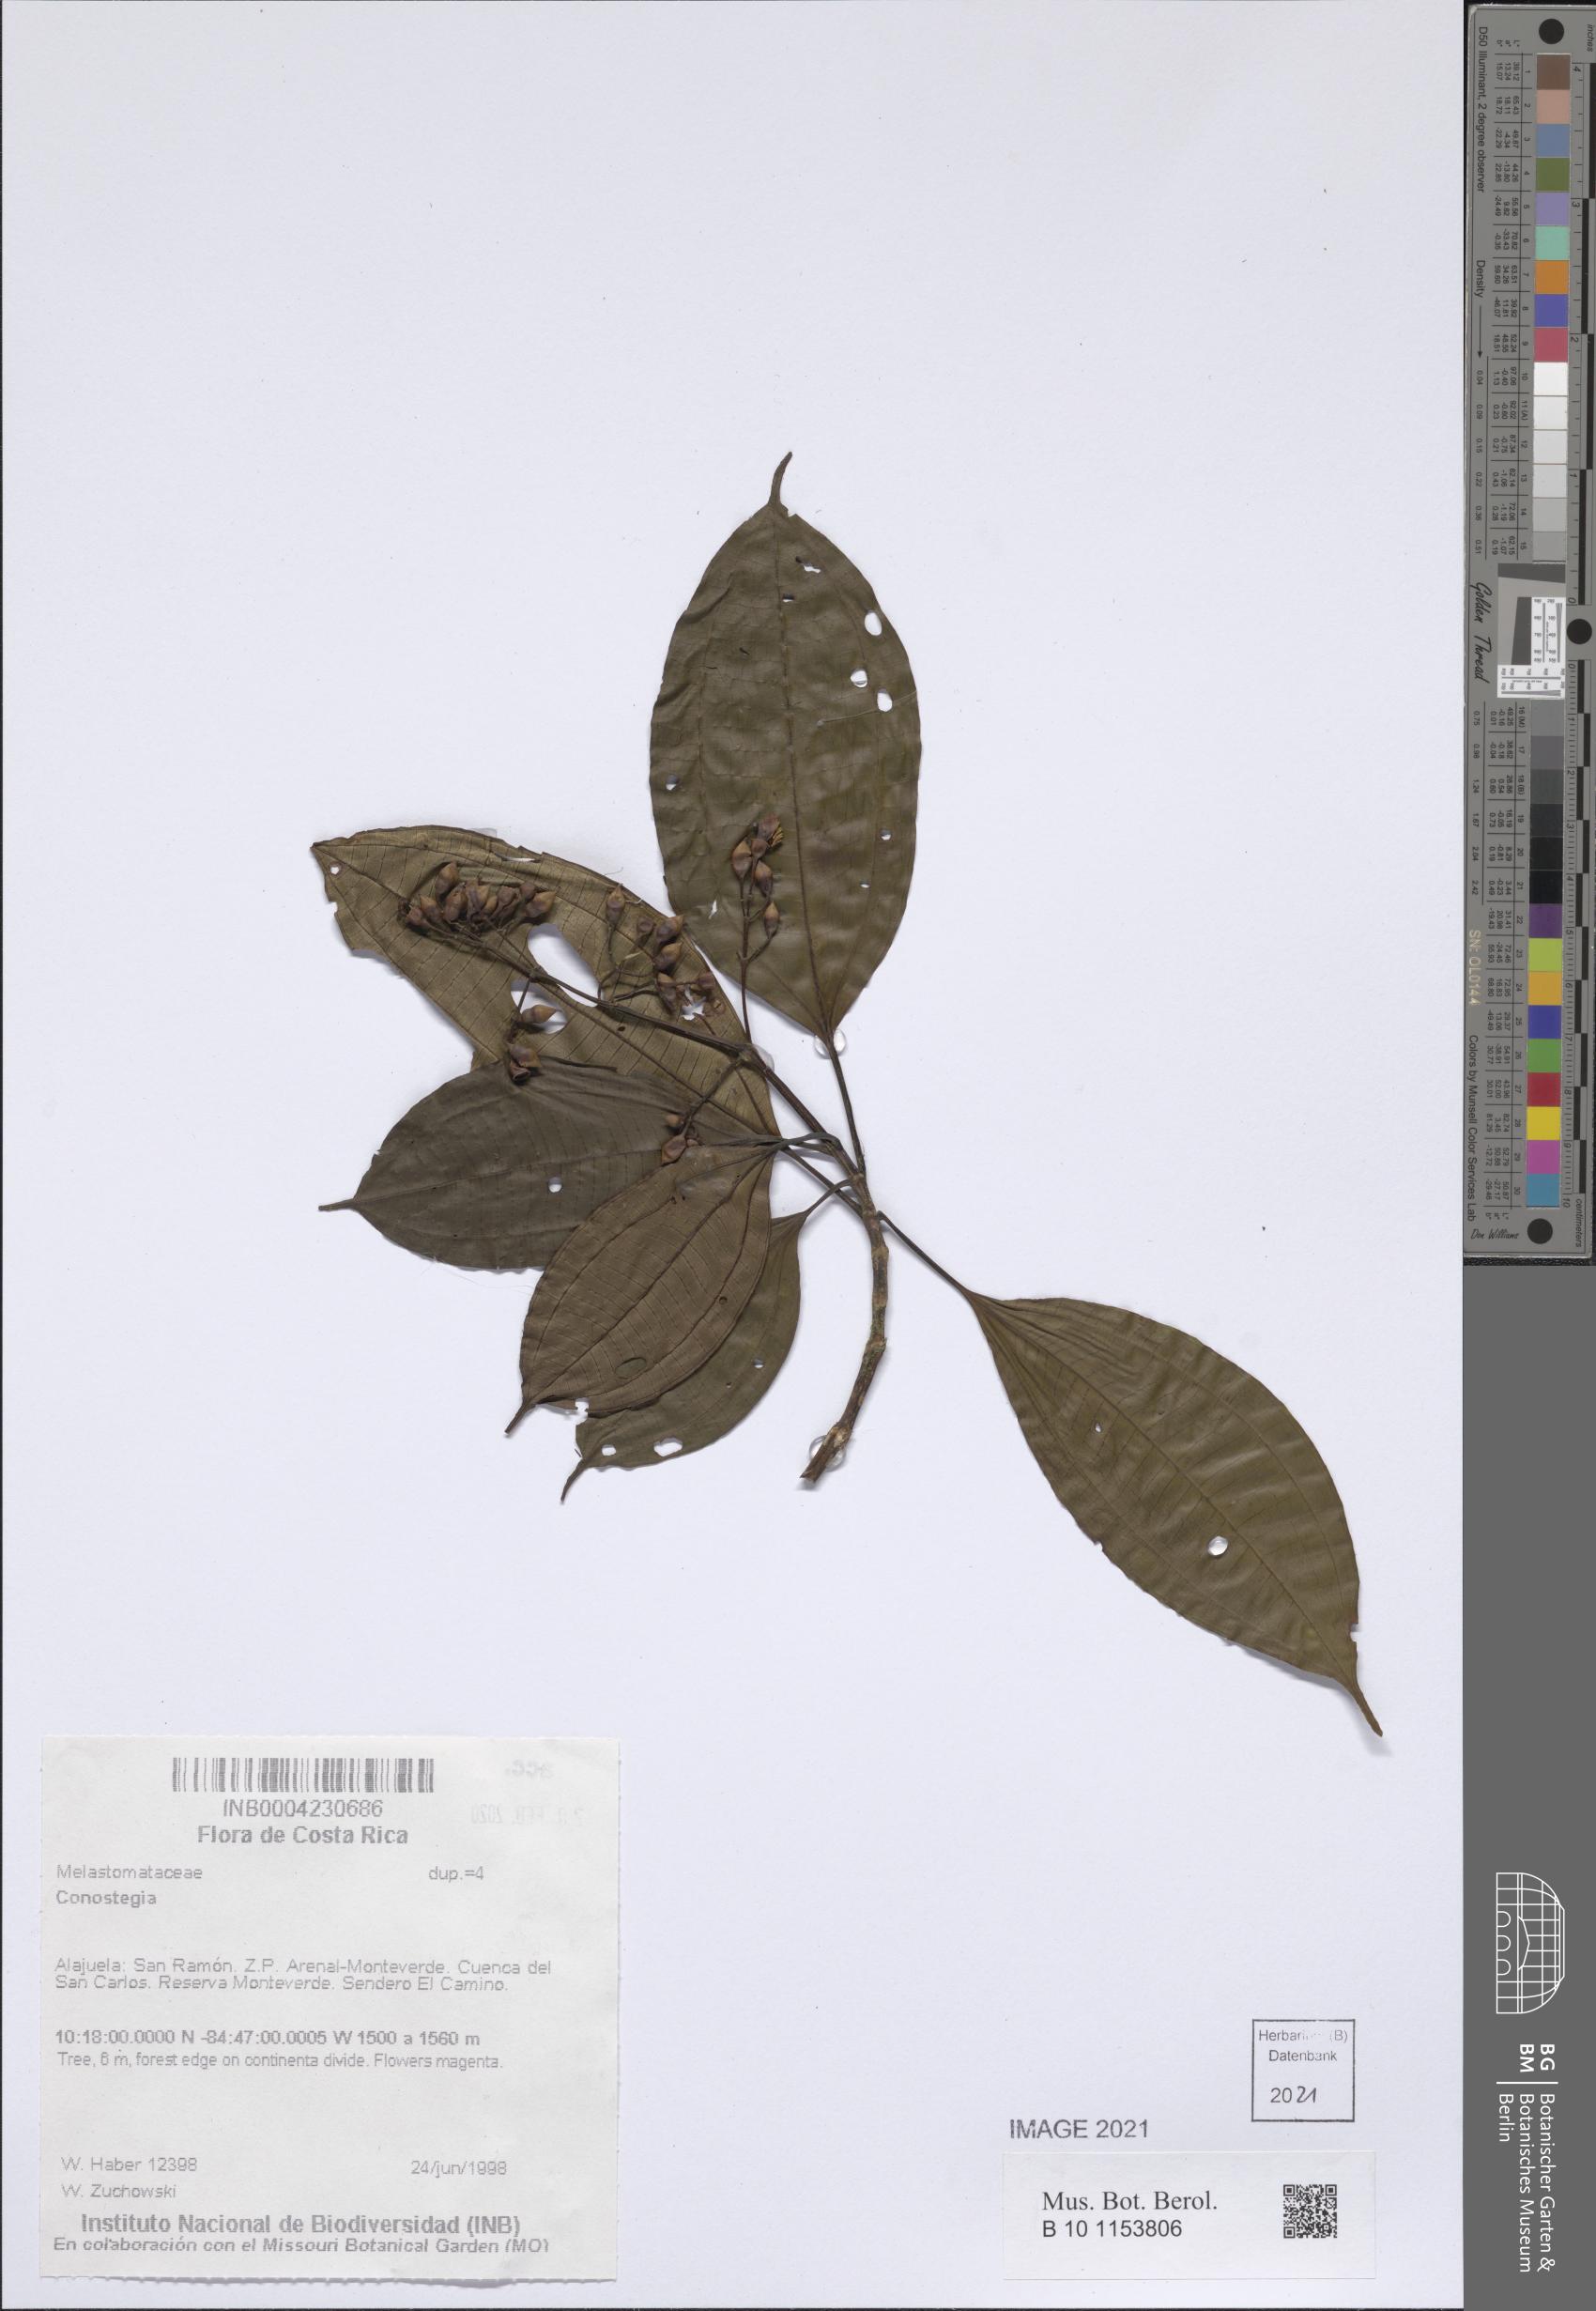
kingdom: Plantae
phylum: Tracheophyta
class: Magnoliopsida
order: Myrtales
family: Melastomataceae
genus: Miconia
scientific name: Miconia
